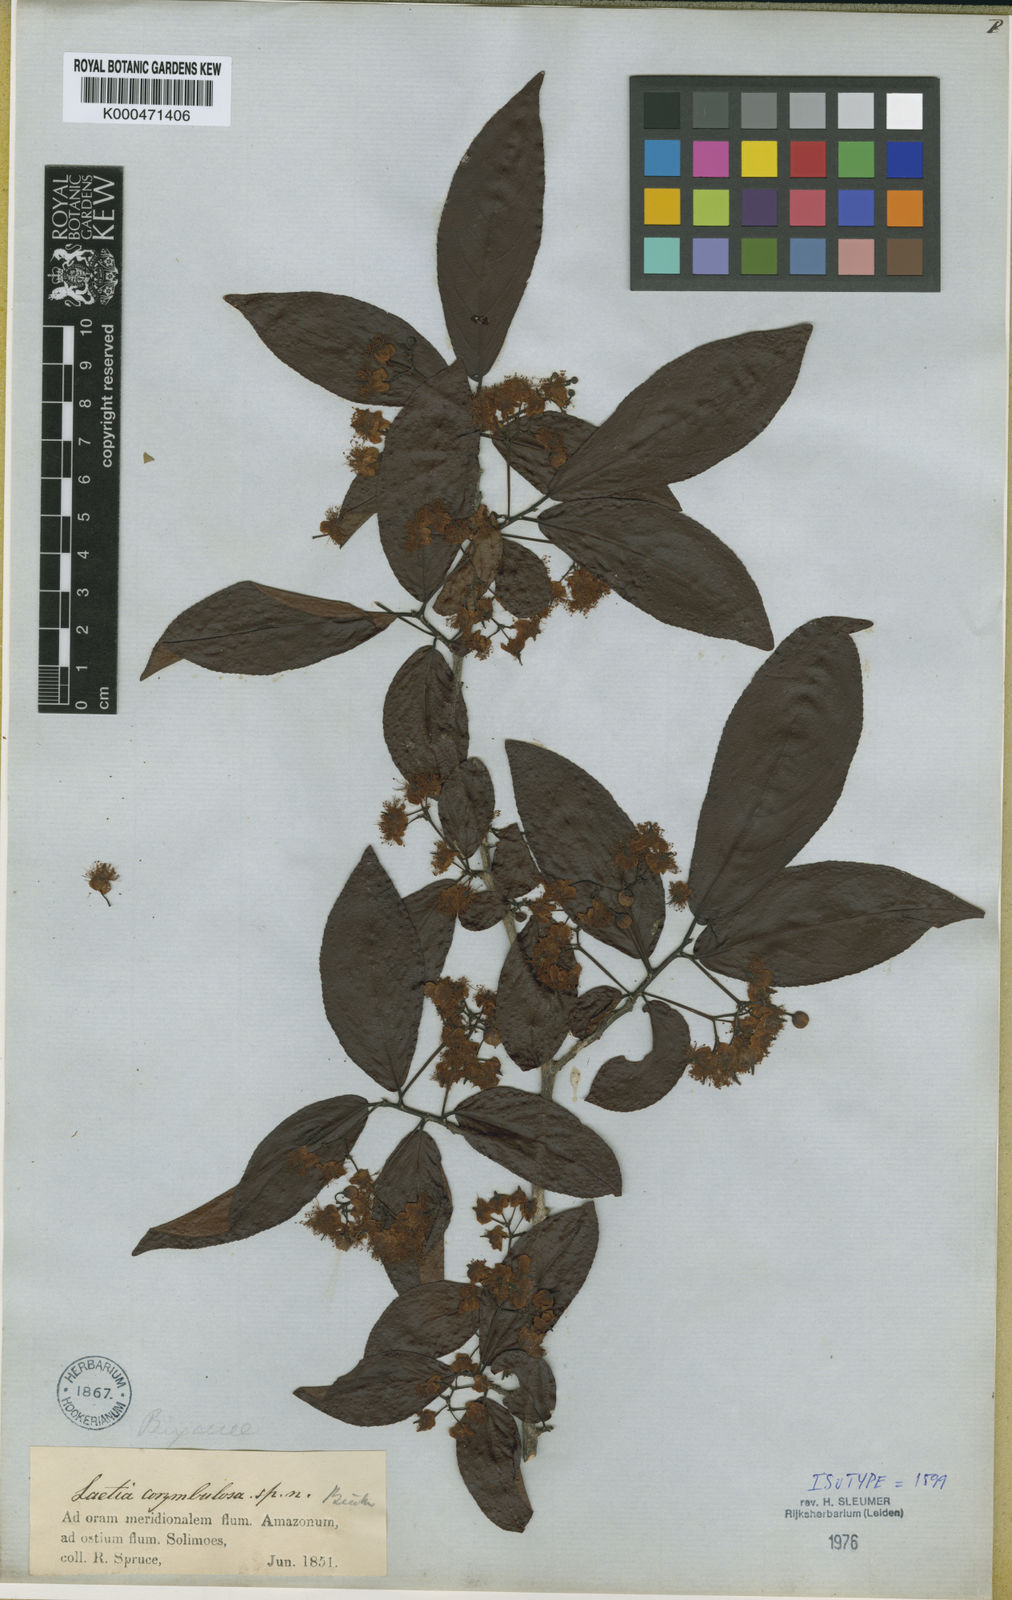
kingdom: Plantae
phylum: Tracheophyta
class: Magnoliopsida
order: Malpighiales
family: Salicaceae
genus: Casearia
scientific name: Casearia corymbulosa
